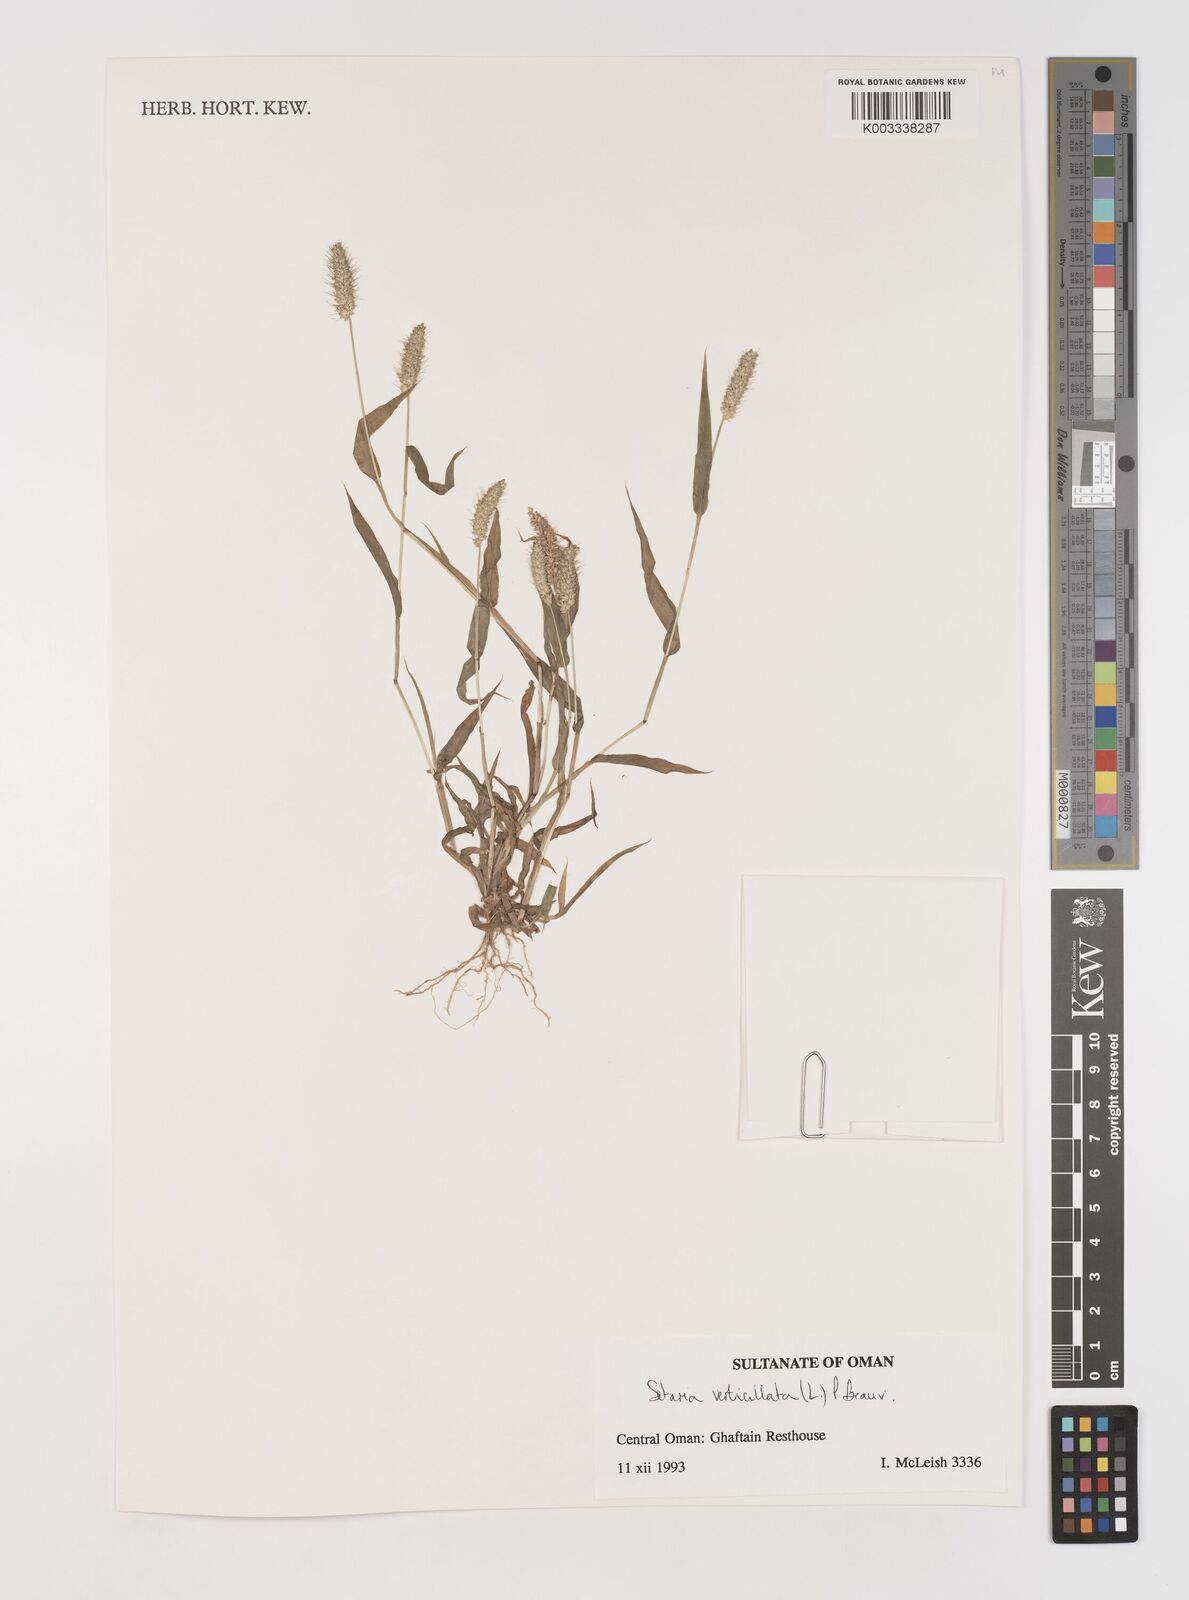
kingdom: Plantae
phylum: Tracheophyta
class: Liliopsida
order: Poales
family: Poaceae
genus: Setaria
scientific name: Setaria verticillata
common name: Hooked bristlegrass
